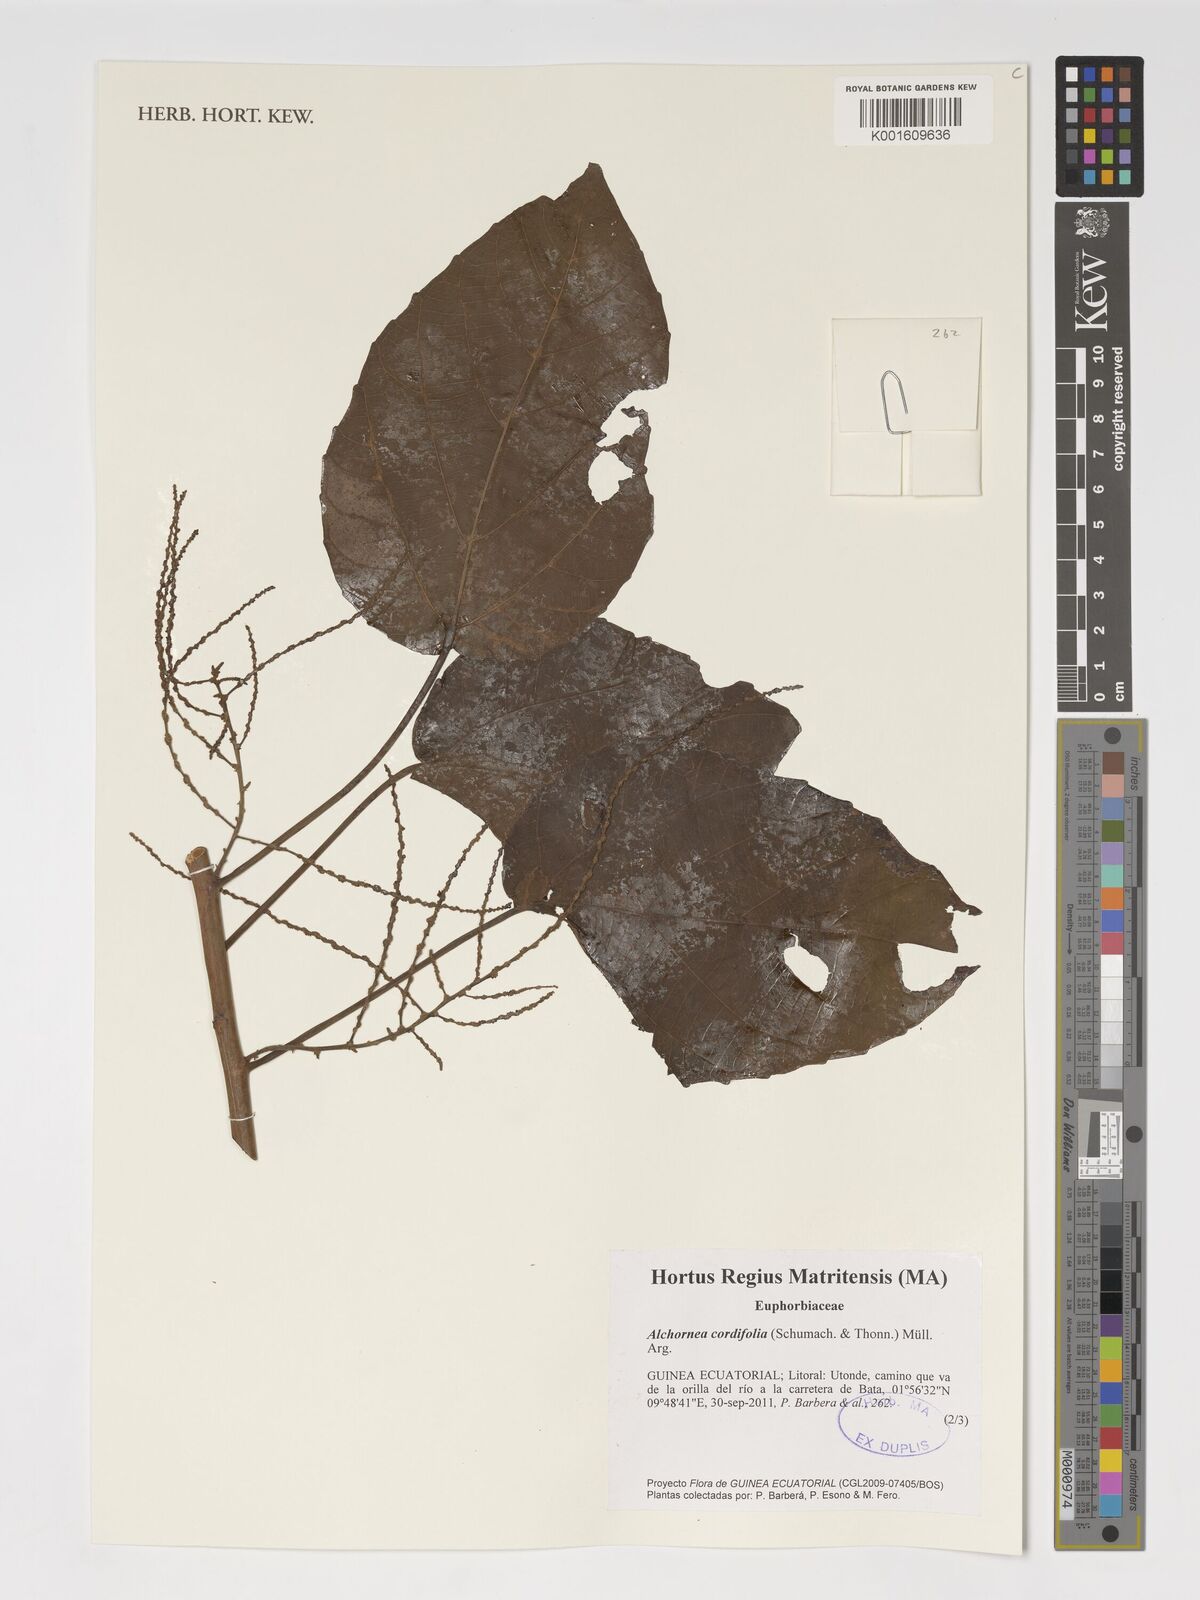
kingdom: Plantae
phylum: Tracheophyta
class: Magnoliopsida
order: Malpighiales
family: Euphorbiaceae
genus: Alchornea
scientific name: Alchornea cordifolia
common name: Christmasbush
